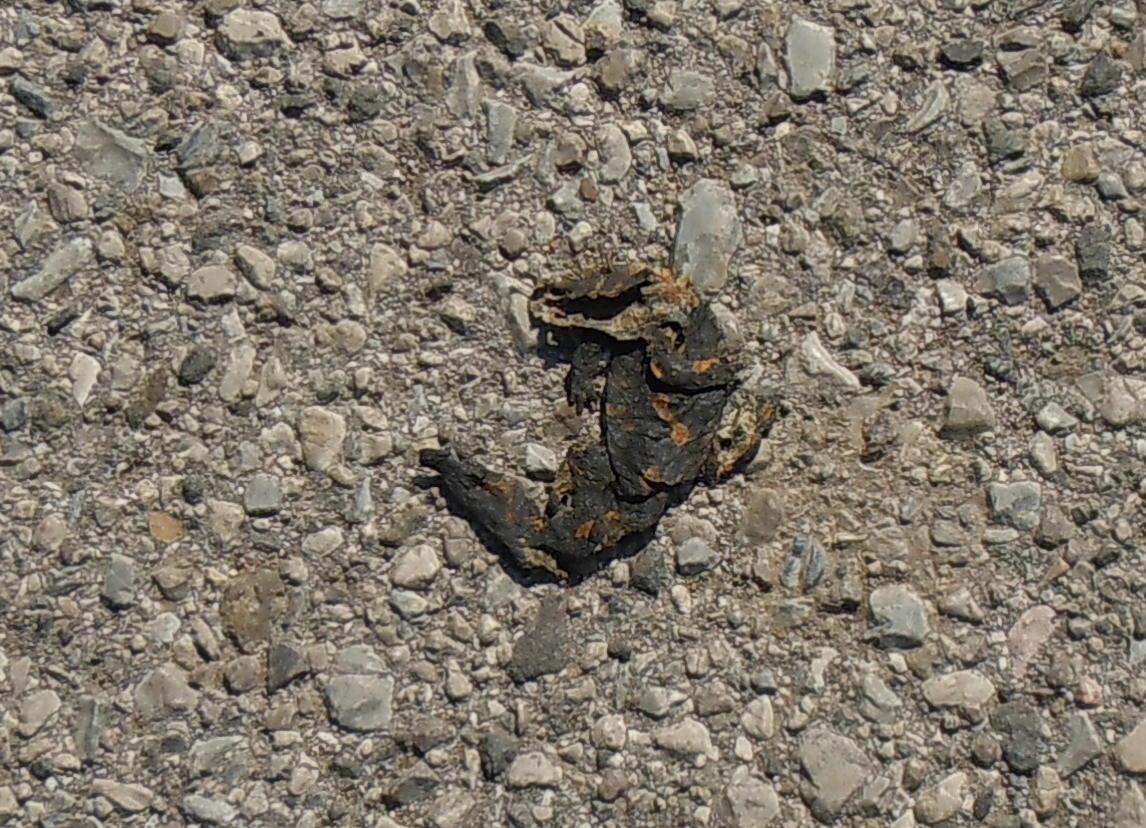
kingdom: Animalia
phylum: Chordata
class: Amphibia
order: Caudata
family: Salamandridae
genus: Salamandra
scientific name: Salamandra salamandra
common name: Fire salamander
